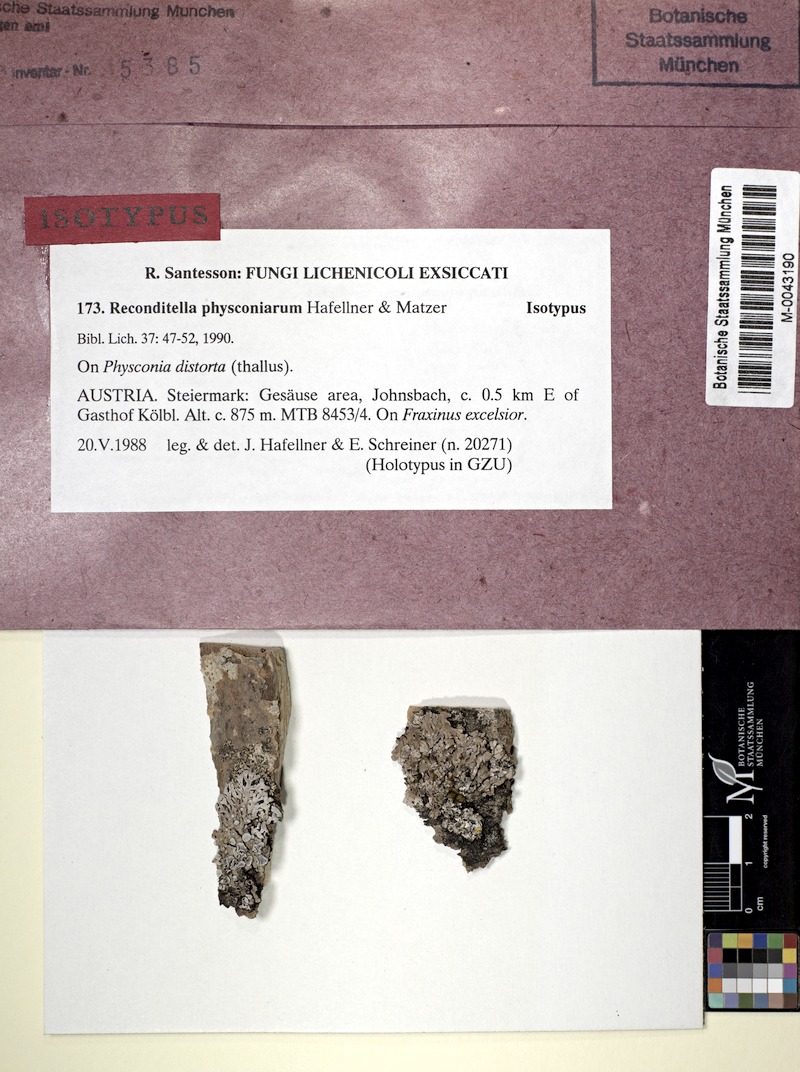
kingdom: Fungi
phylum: Ascomycota
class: Sordariomycetes
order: Sordariales
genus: Reconditella
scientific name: Reconditella physconiarum
